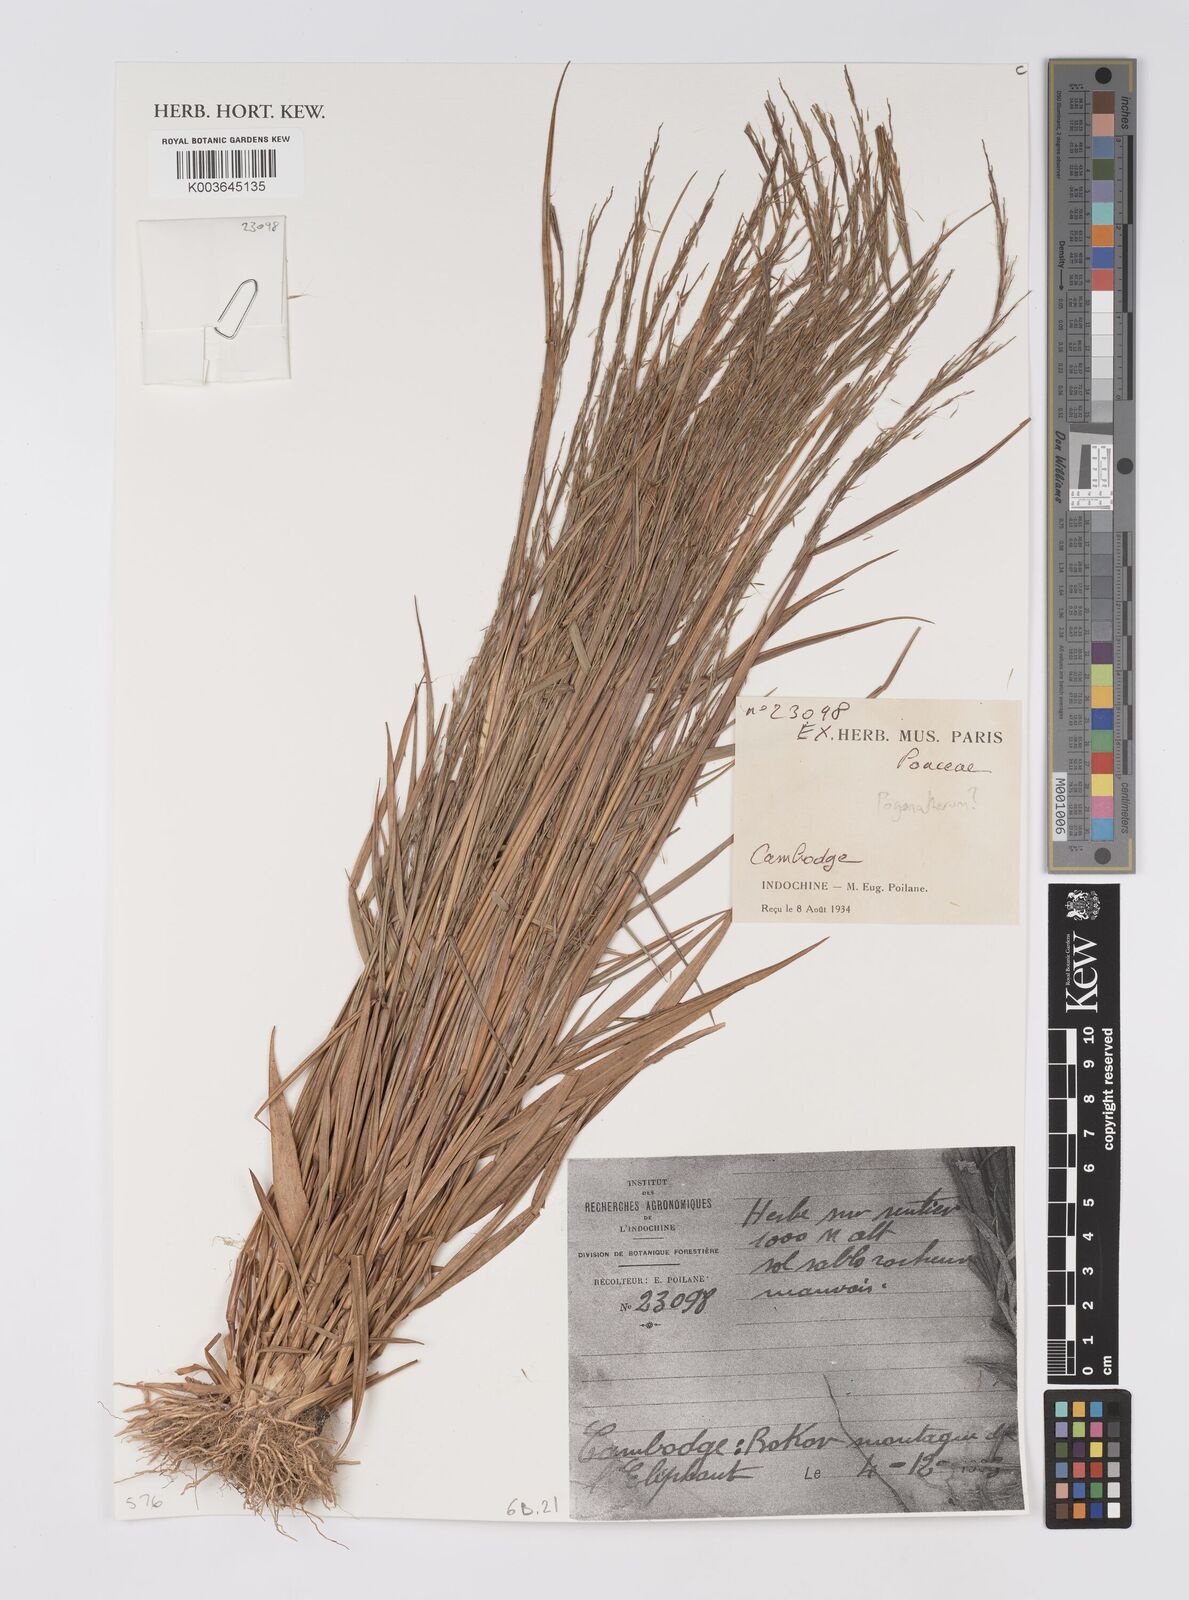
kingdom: Plantae
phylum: Tracheophyta
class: Liliopsida
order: Poales
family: Poaceae
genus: Pogonatherum
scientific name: Pogonatherum
